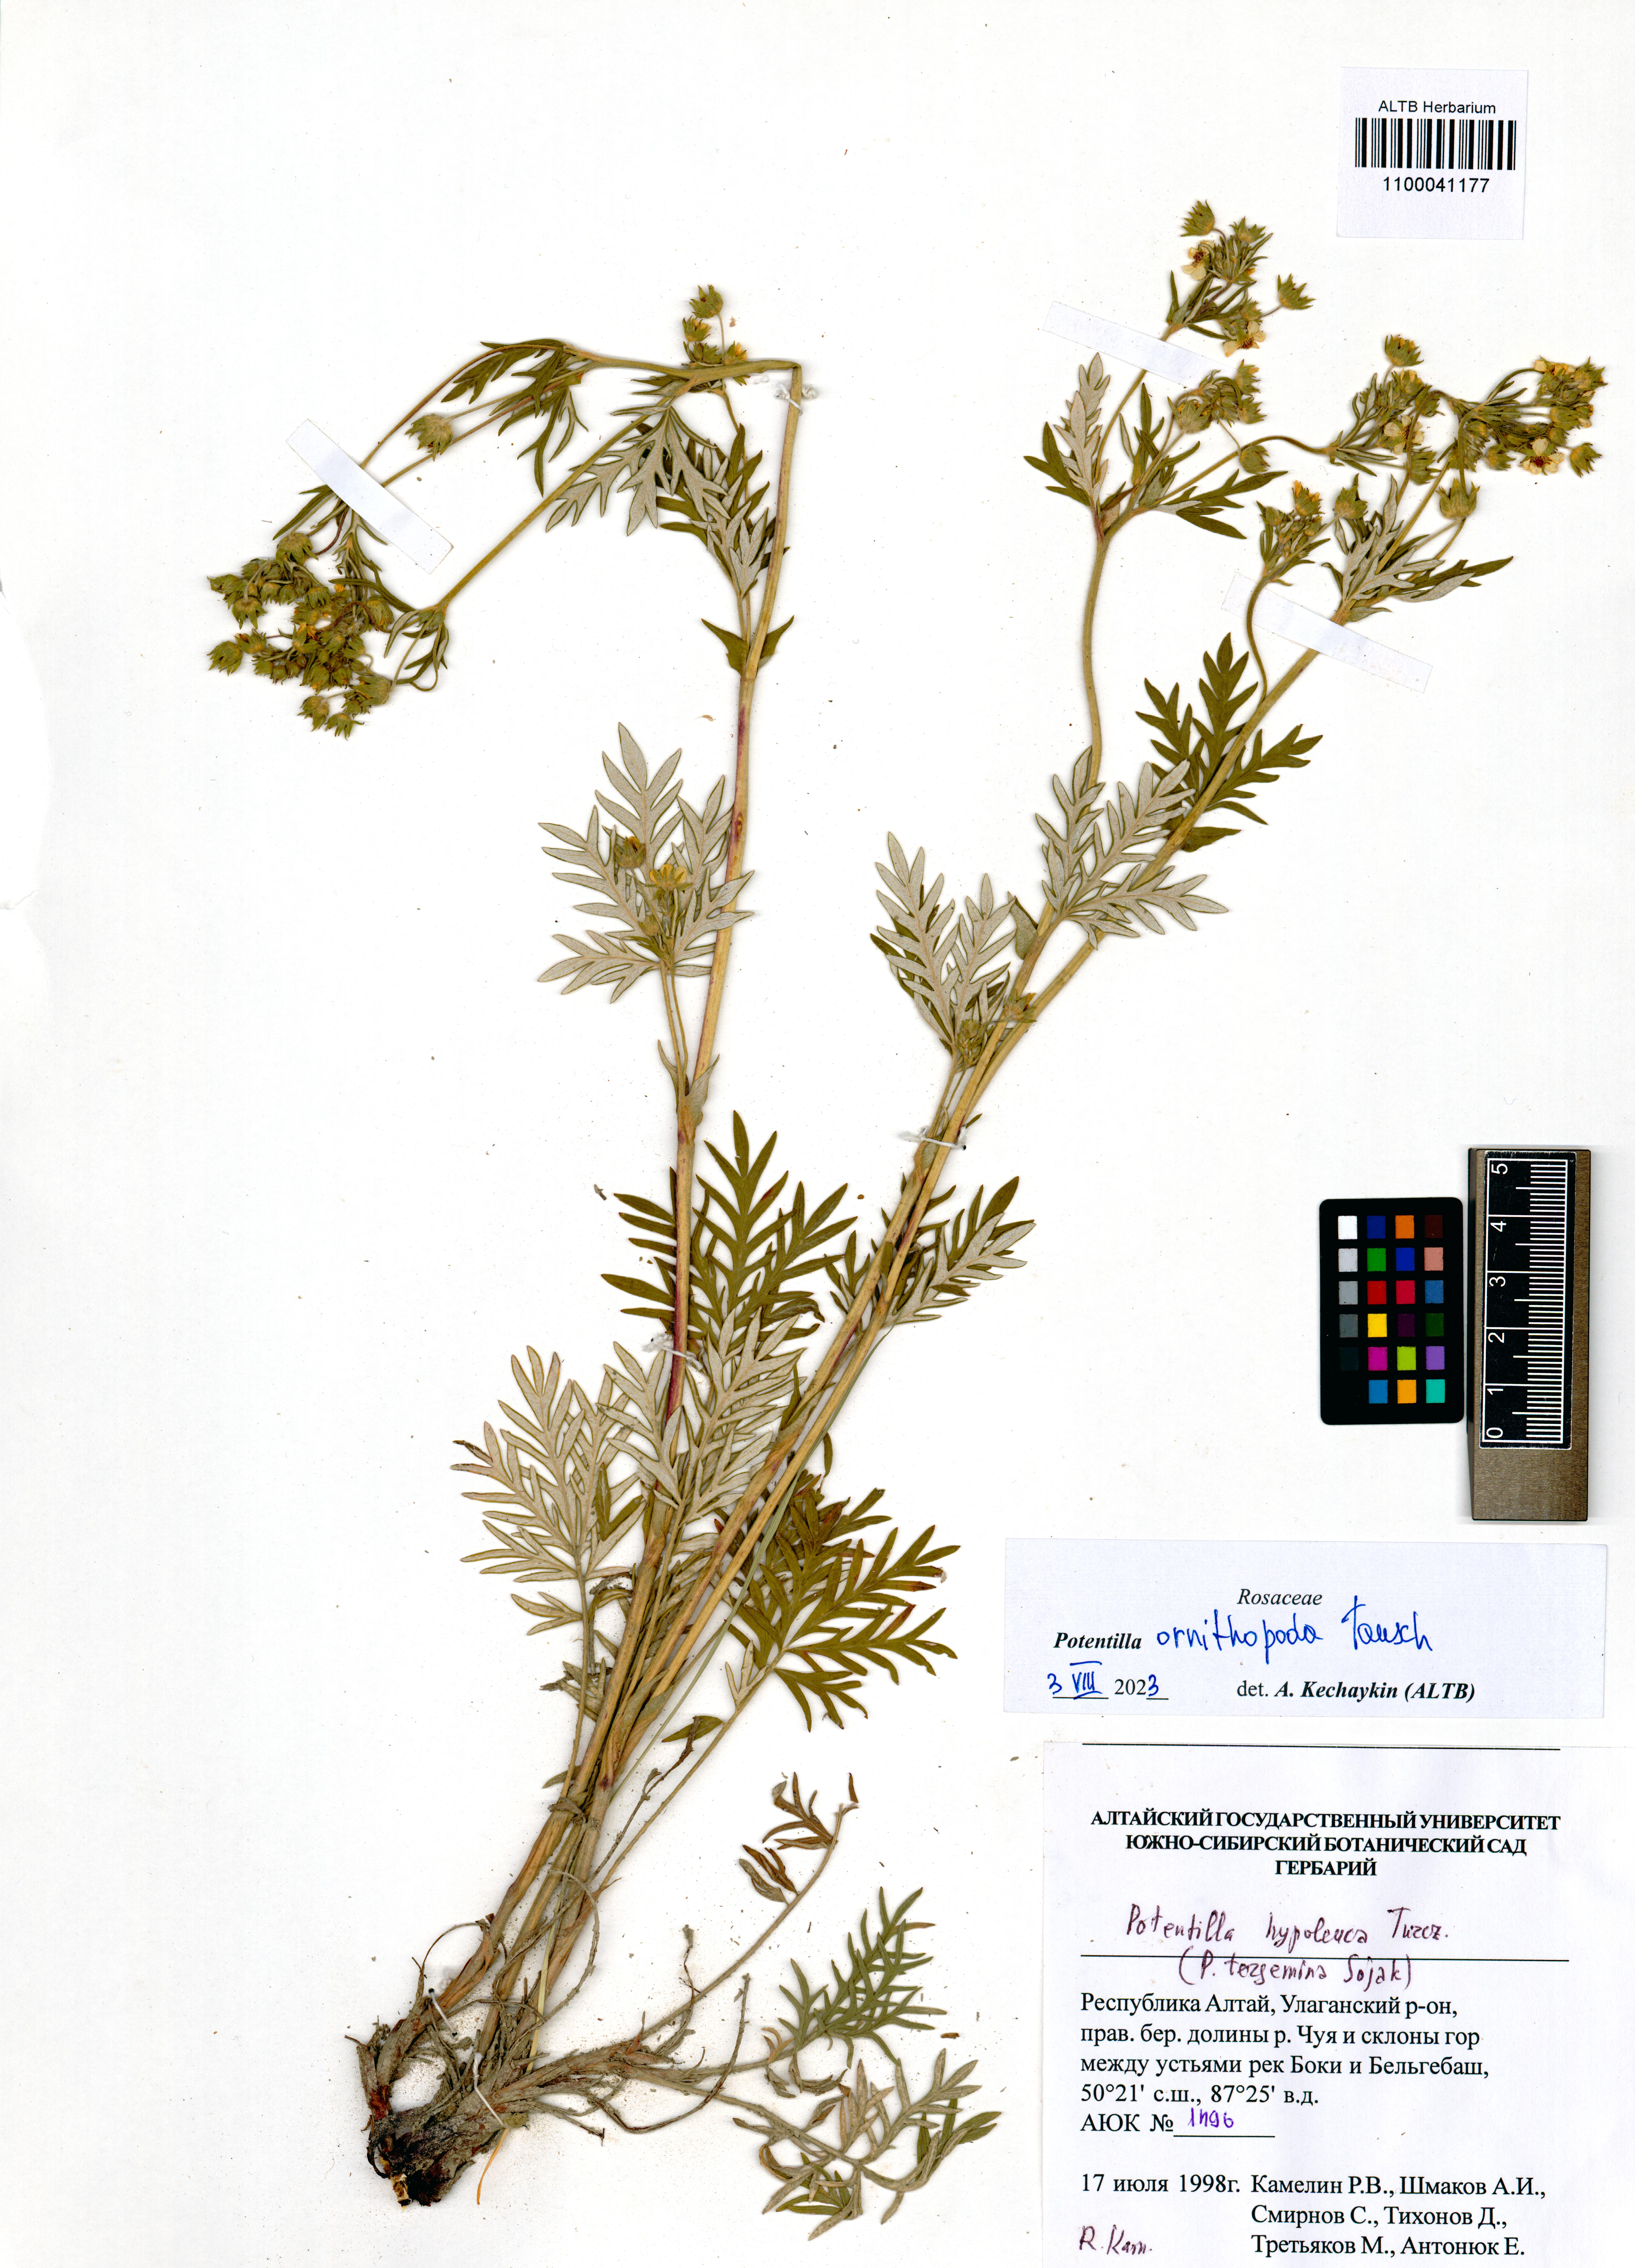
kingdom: Plantae
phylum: Tracheophyta
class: Magnoliopsida
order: Rosales
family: Rosaceae
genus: Potentilla
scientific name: Potentilla ornithopoda
